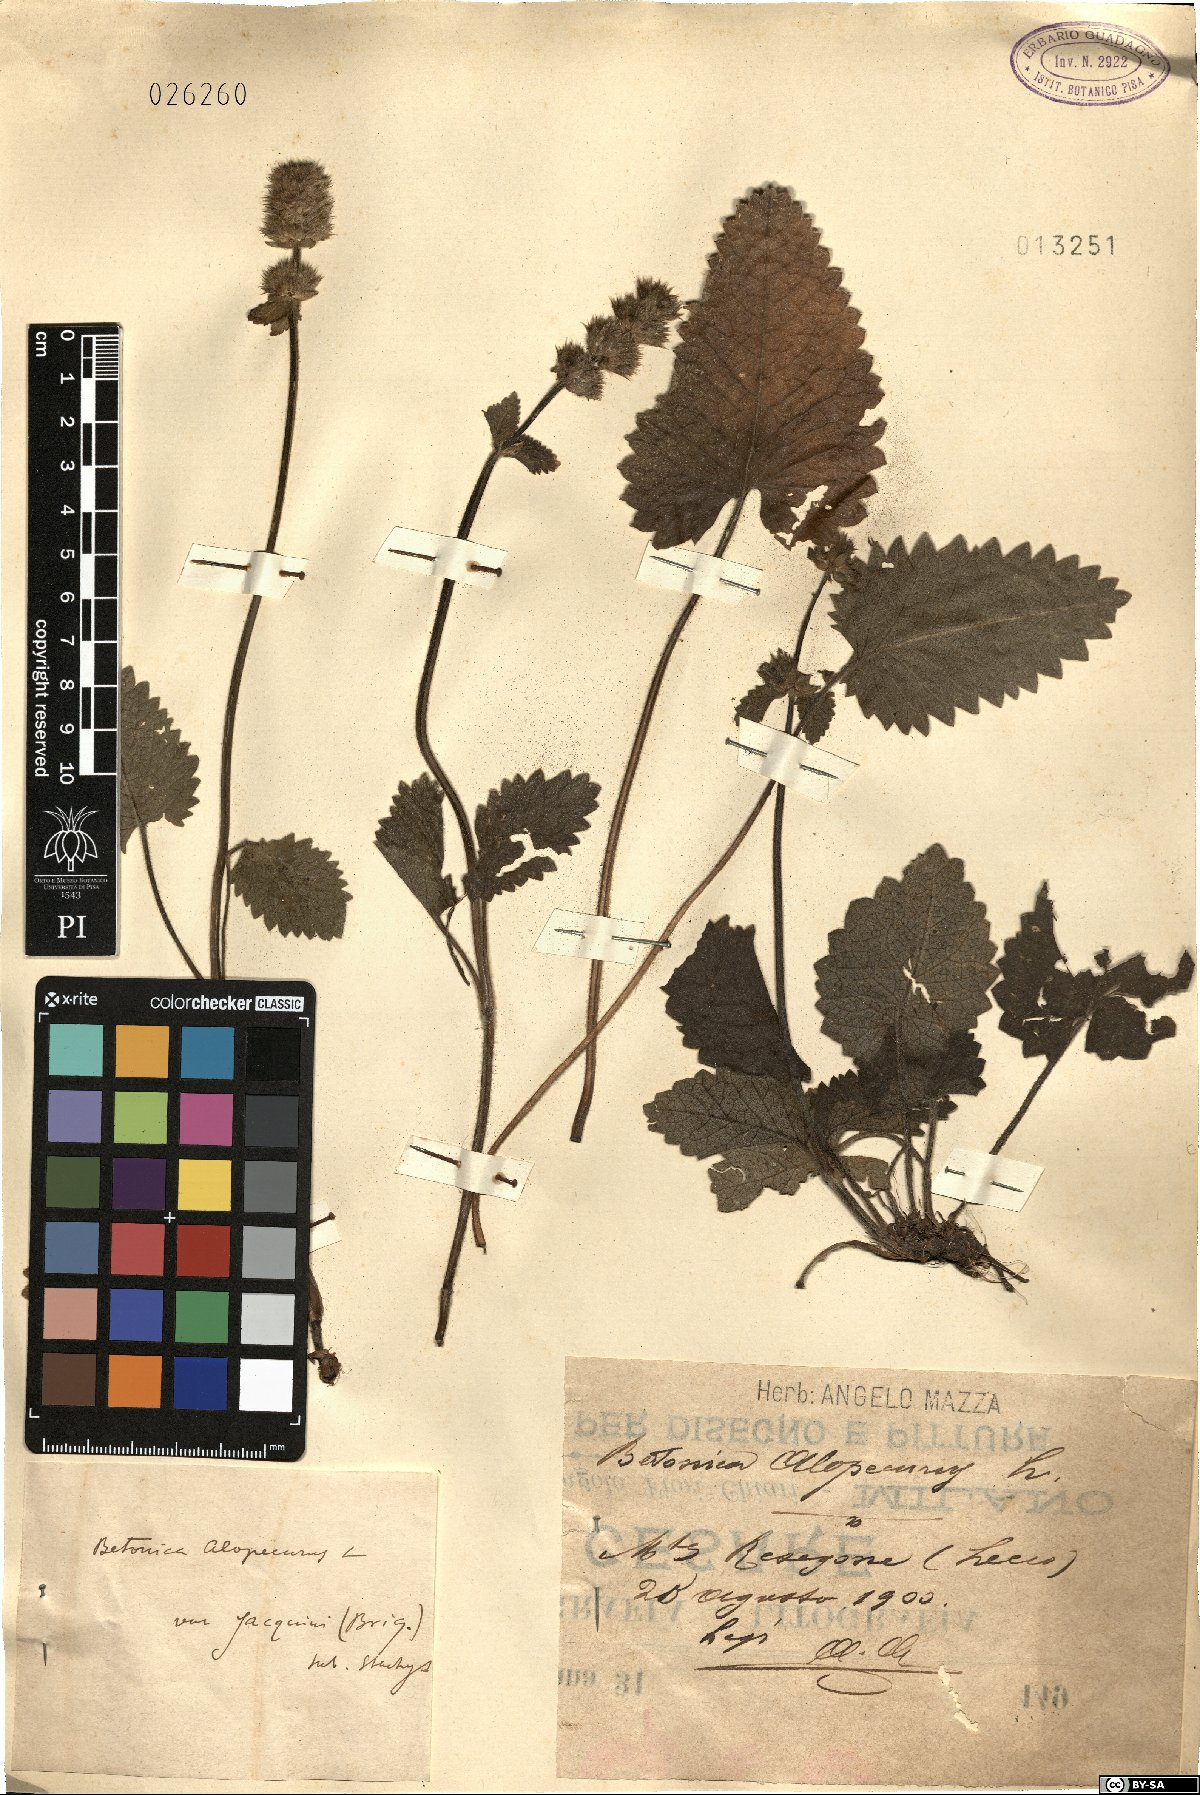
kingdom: Plantae
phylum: Tracheophyta
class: Magnoliopsida
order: Lamiales
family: Lamiaceae
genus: Betonica
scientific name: Betonica alopecuros
